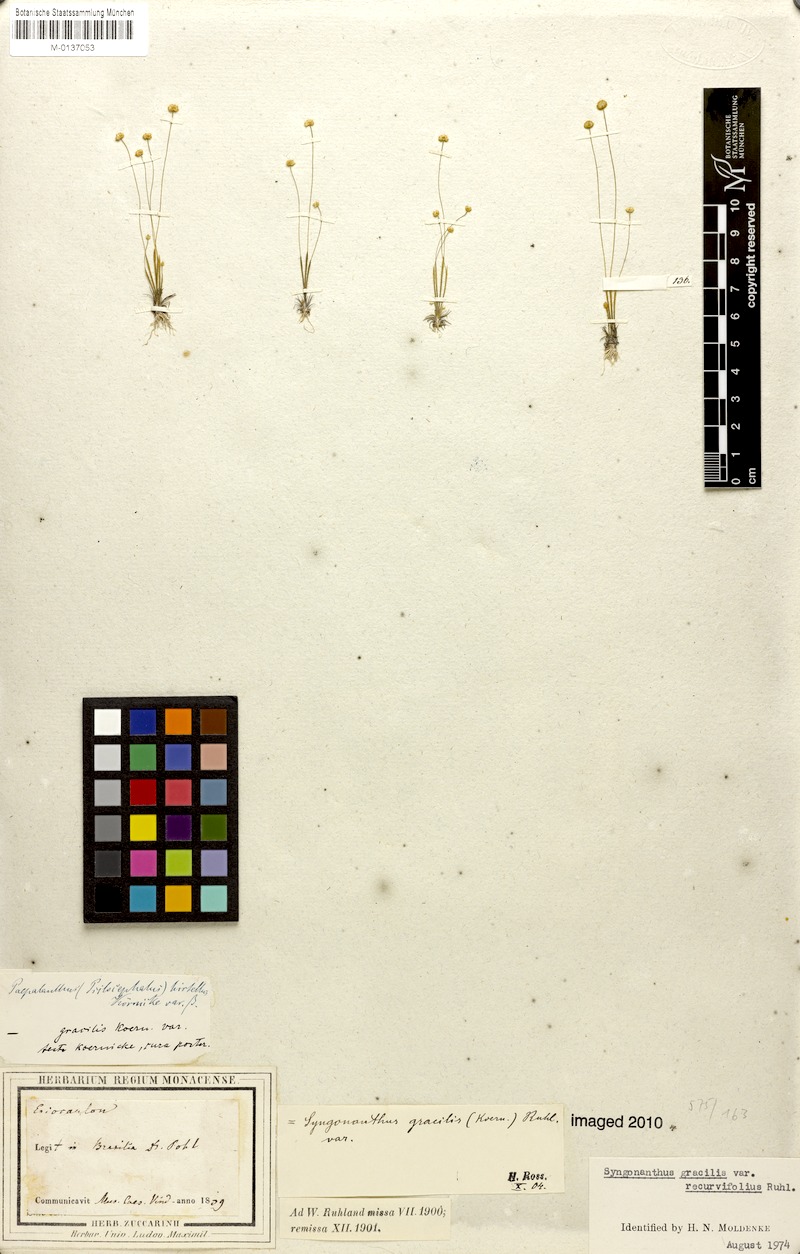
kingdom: Plantae
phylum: Tracheophyta
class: Liliopsida
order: Poales
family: Eriocaulaceae
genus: Syngonanthus
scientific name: Syngonanthus gracilis
